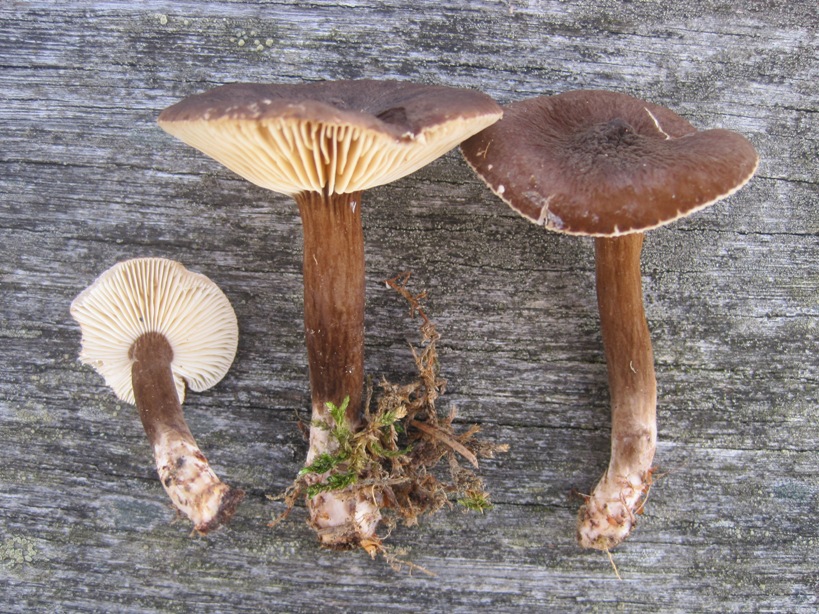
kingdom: Fungi
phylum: Basidiomycota
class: Agaricomycetes
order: Russulales
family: Russulaceae
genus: Lactarius
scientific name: Lactarius lignyotus
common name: fløjls-mælkehat
